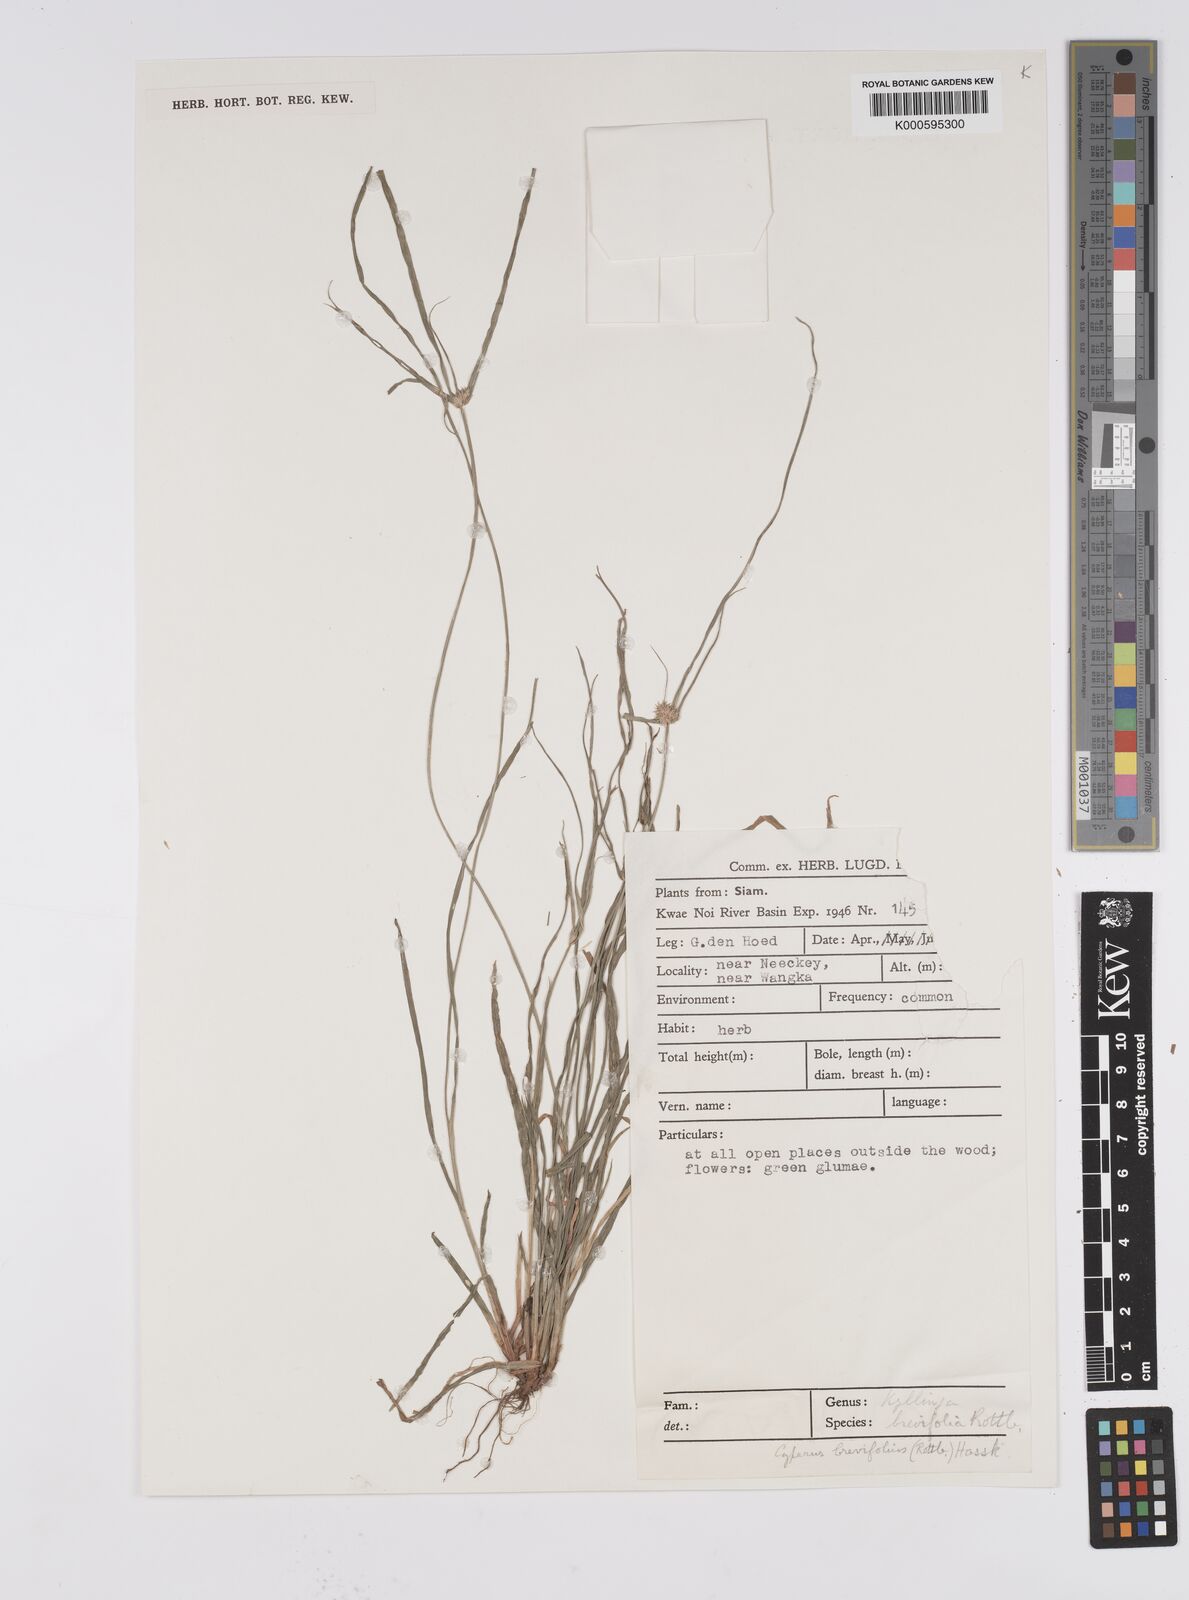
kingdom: Plantae
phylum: Tracheophyta
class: Liliopsida
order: Poales
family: Cyperaceae
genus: Cyperus
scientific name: Cyperus brevifolius
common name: Globe kyllinga
